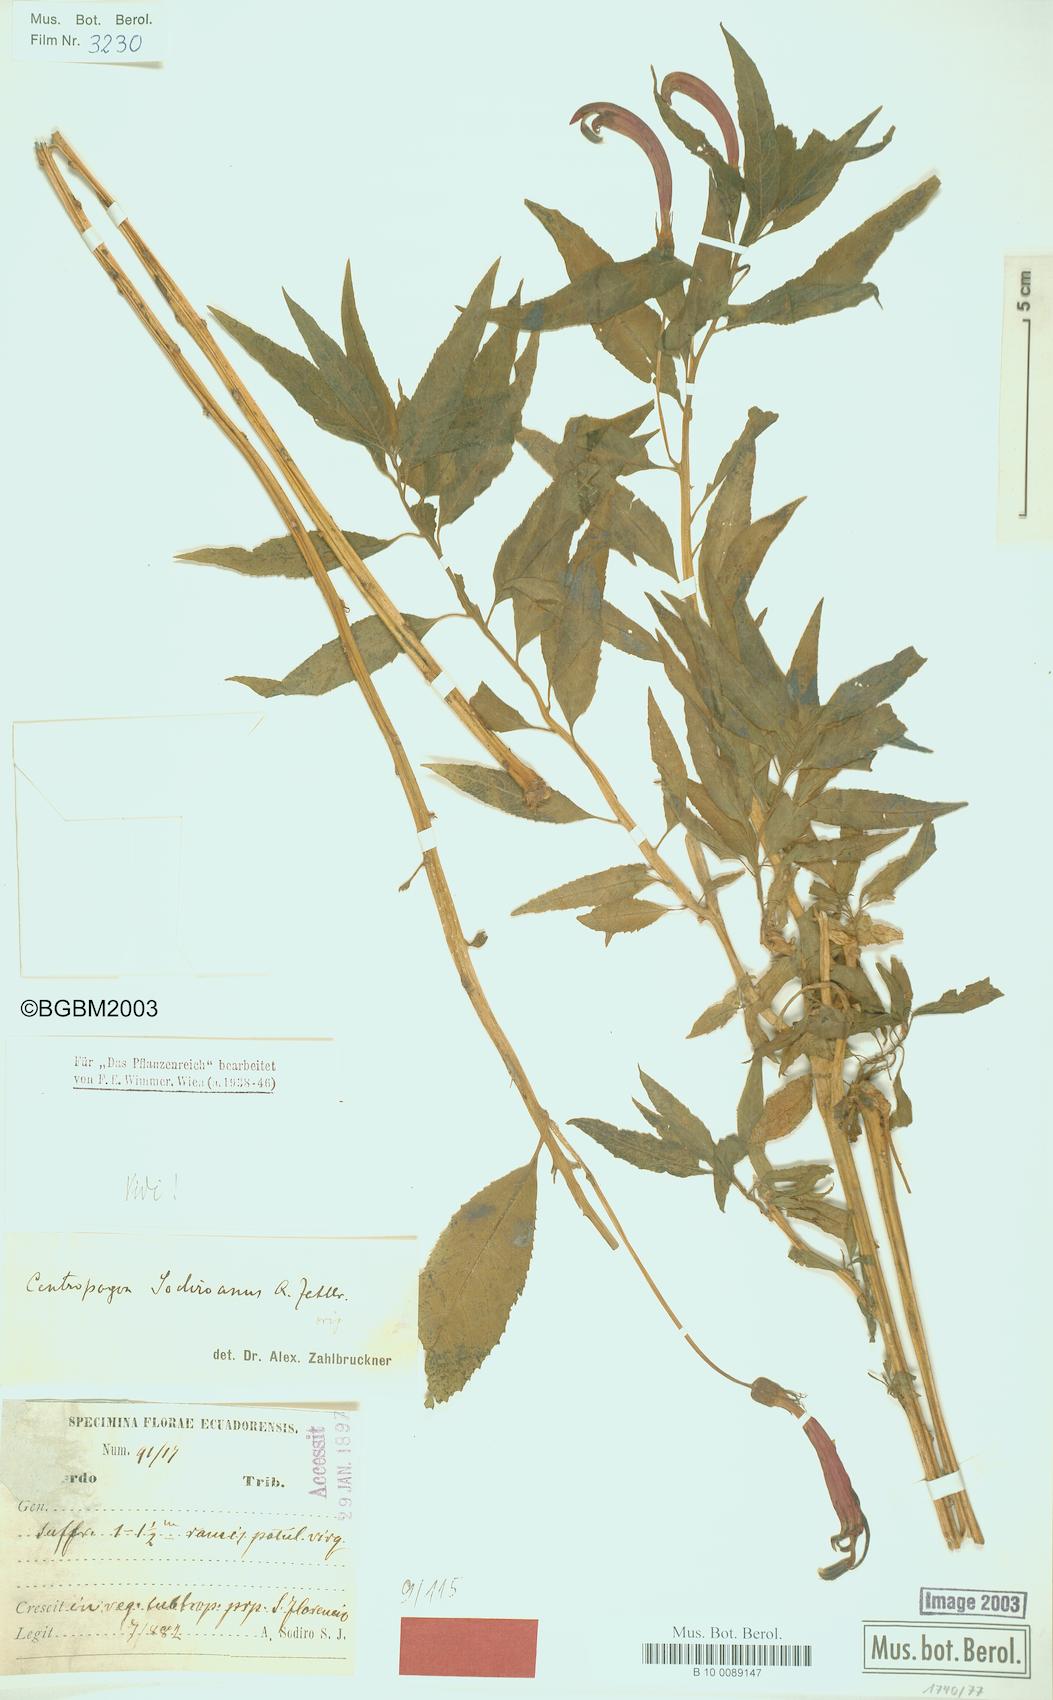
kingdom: Plantae
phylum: Tracheophyta
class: Magnoliopsida
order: Asterales
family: Campanulaceae
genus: Centropogon
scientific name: Centropogon sodiroanus
